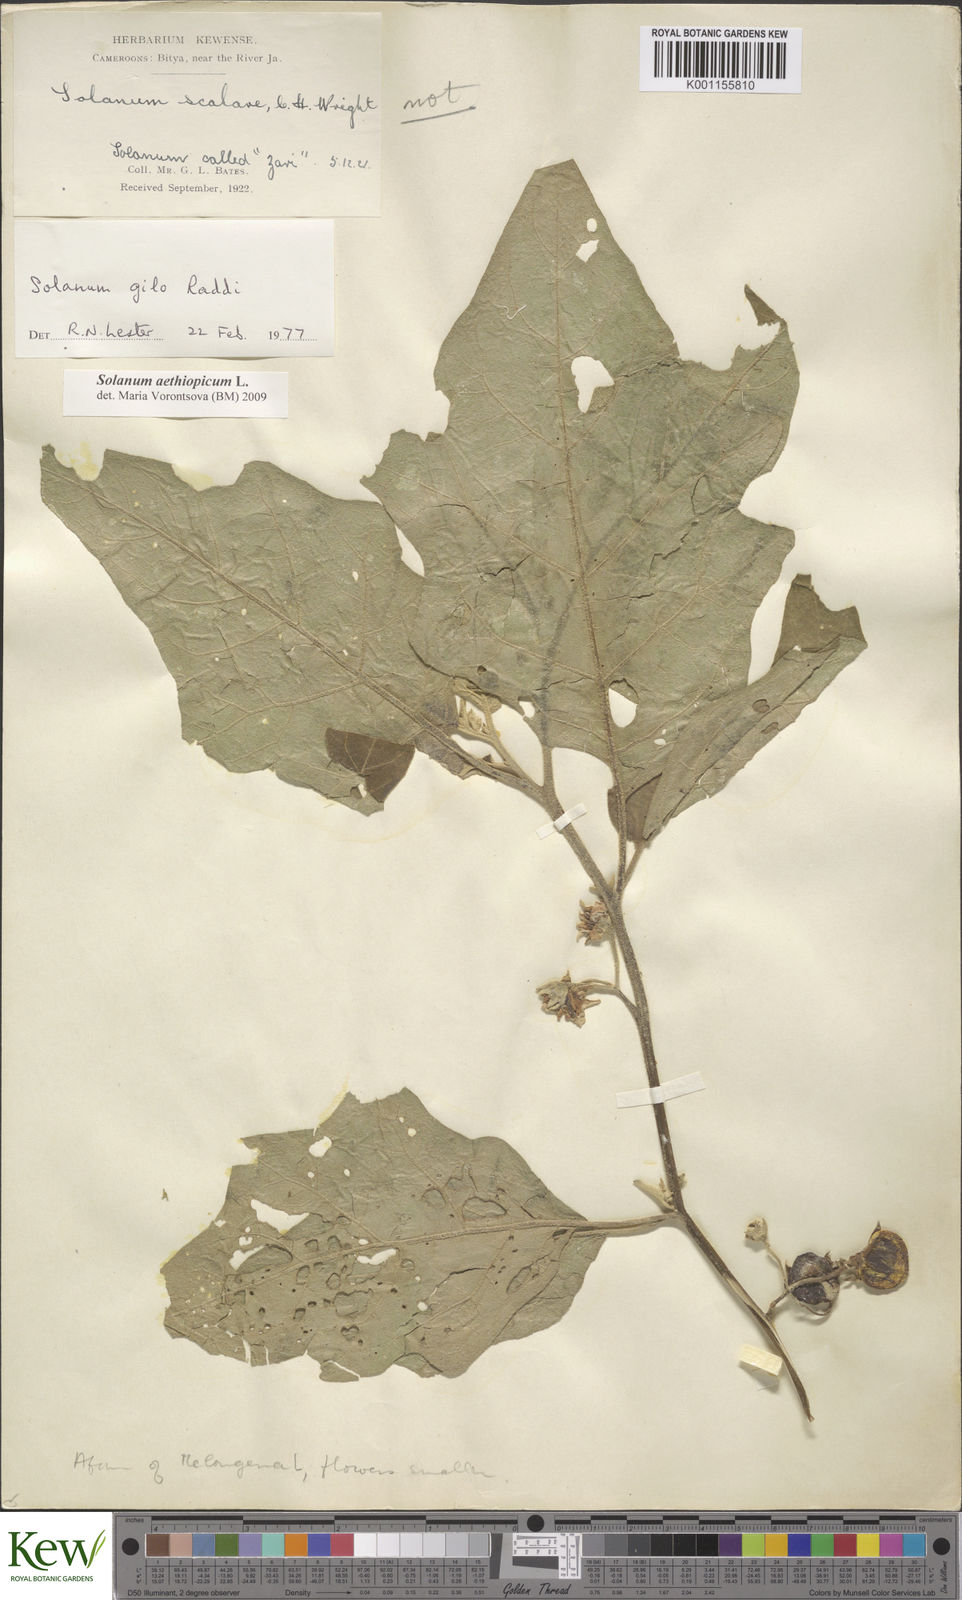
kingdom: Plantae
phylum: Tracheophyta
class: Magnoliopsida
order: Solanales
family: Solanaceae
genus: Solanum
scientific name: Solanum aethiopicum
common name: Gilo
